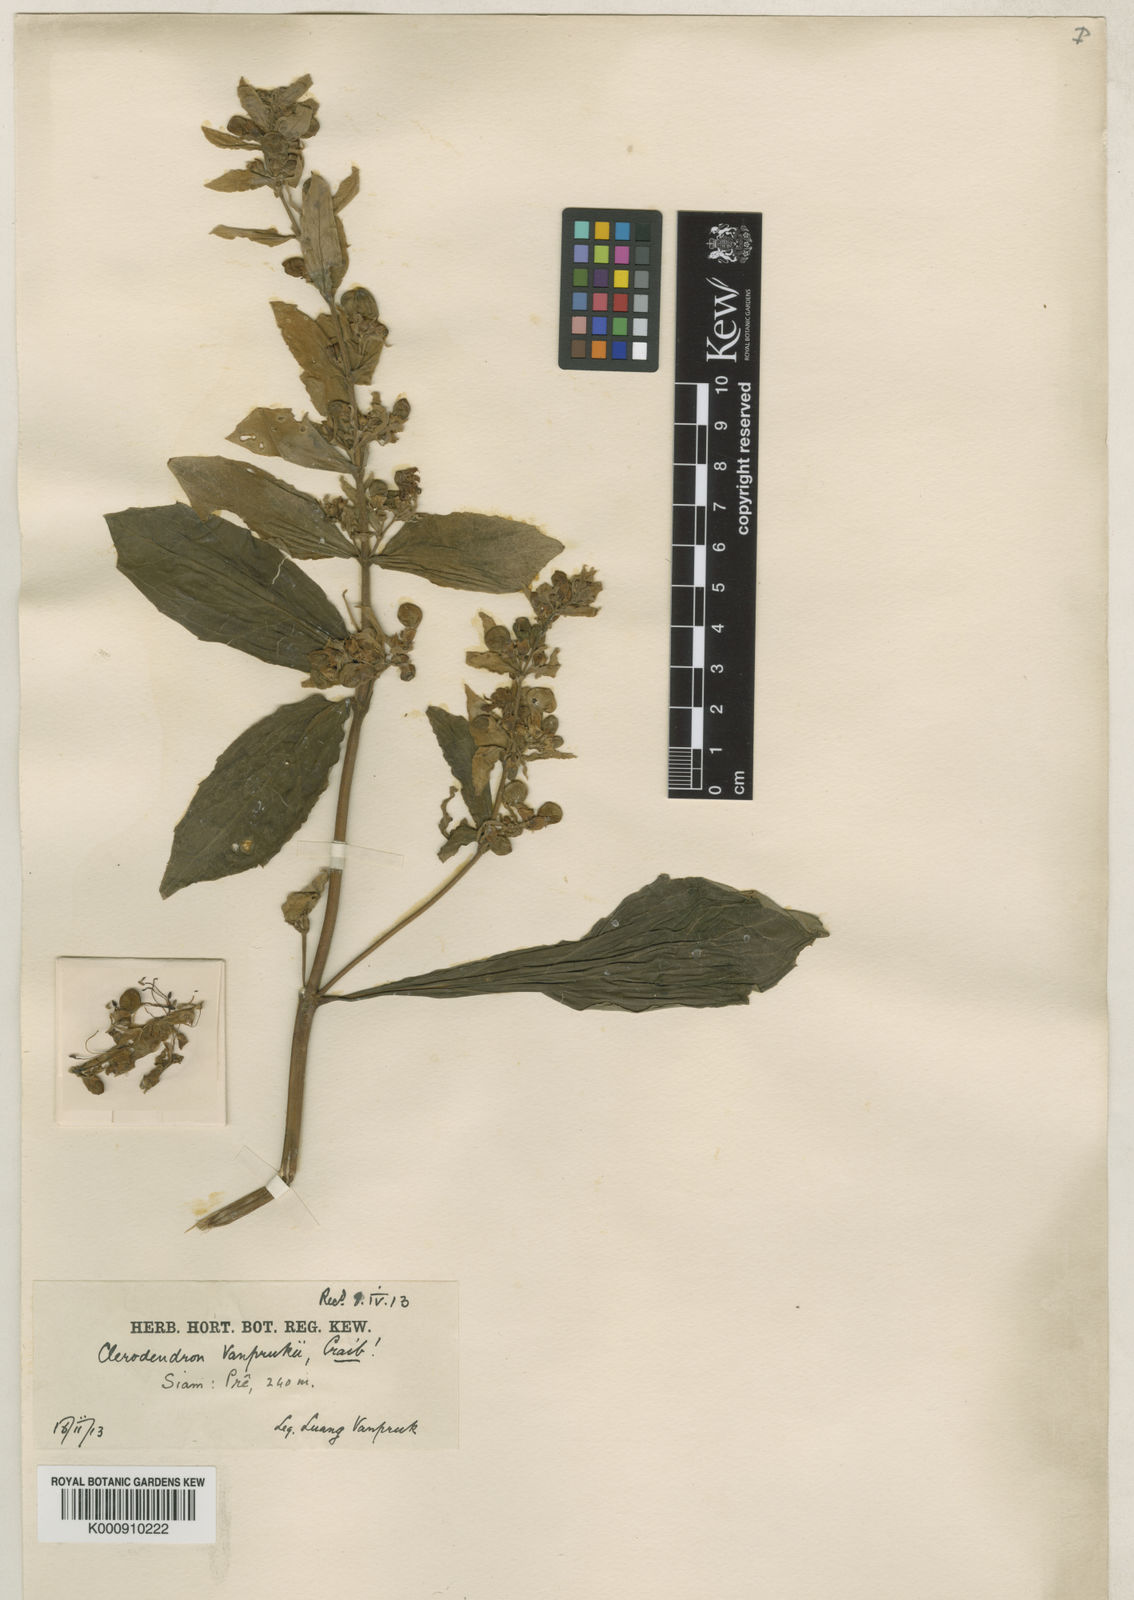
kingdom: Plantae
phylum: Tracheophyta
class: Magnoliopsida
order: Lamiales
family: Lamiaceae
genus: Rotheca
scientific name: Rotheca serrata
